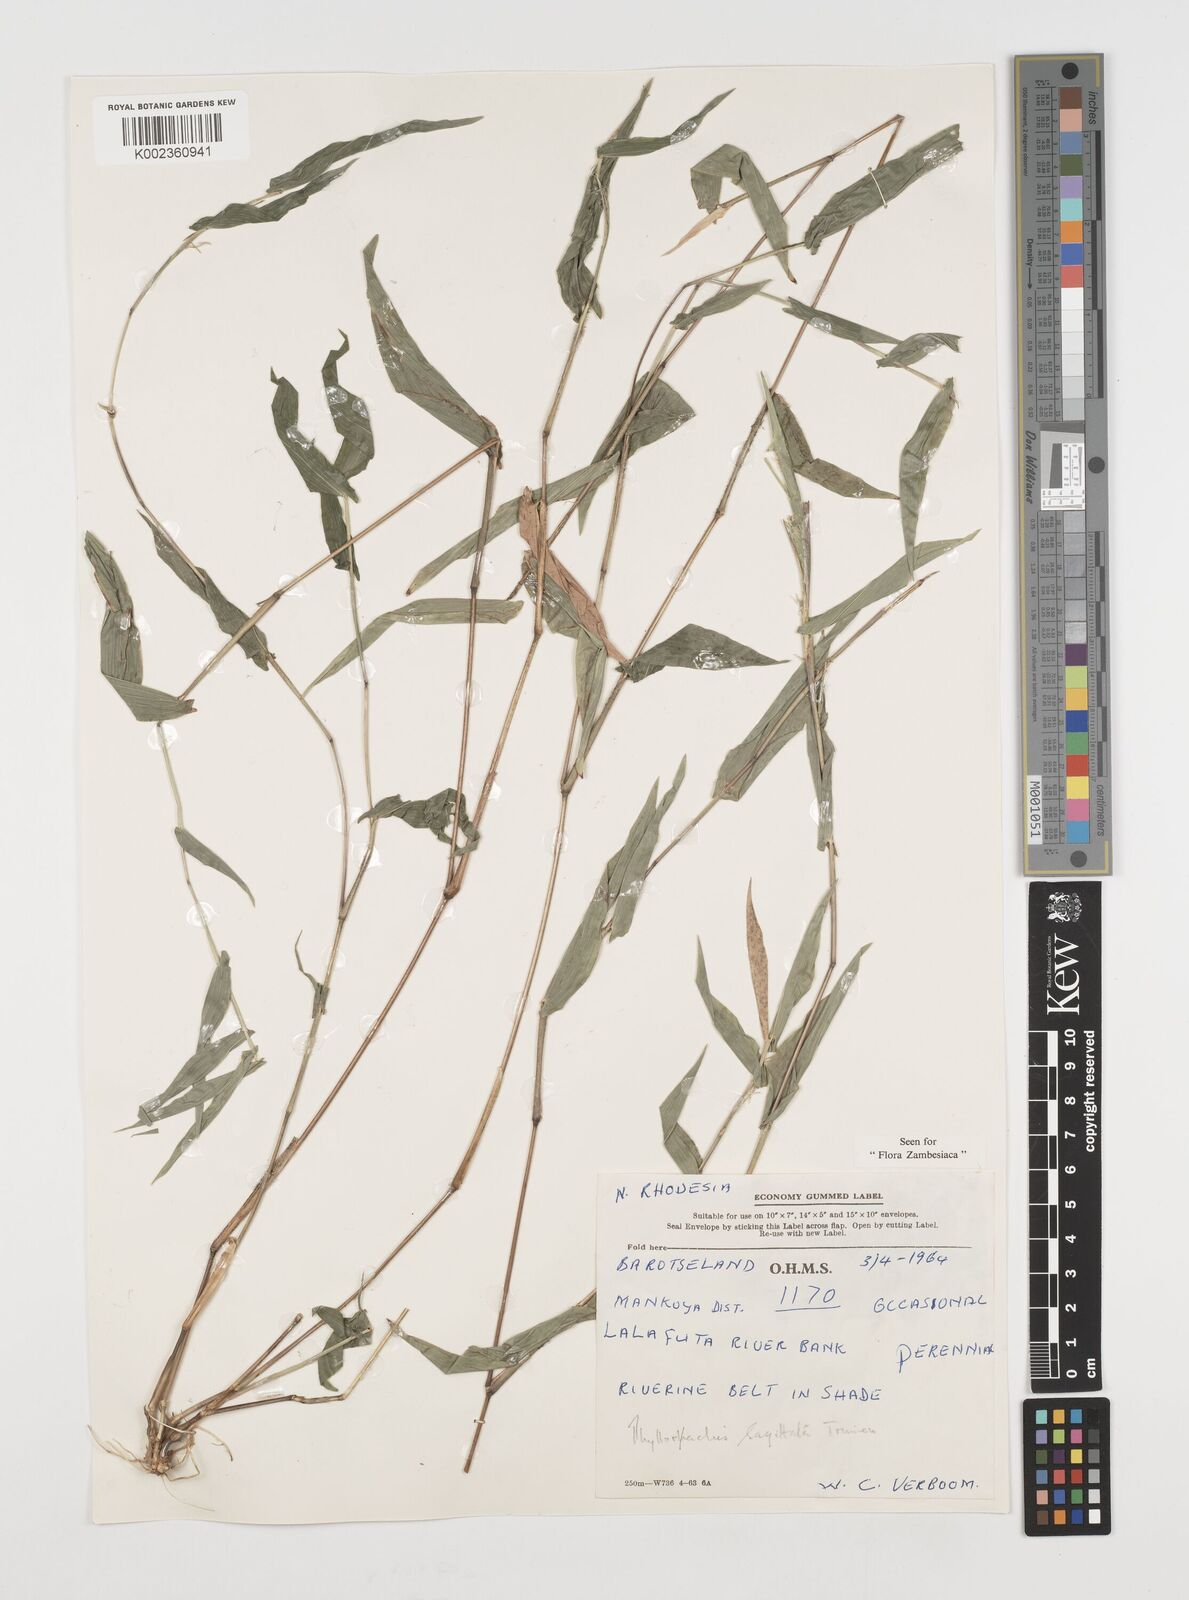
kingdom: Plantae
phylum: Tracheophyta
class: Liliopsida
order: Poales
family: Poaceae
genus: Phyllorachis
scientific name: Phyllorachis sagittata
